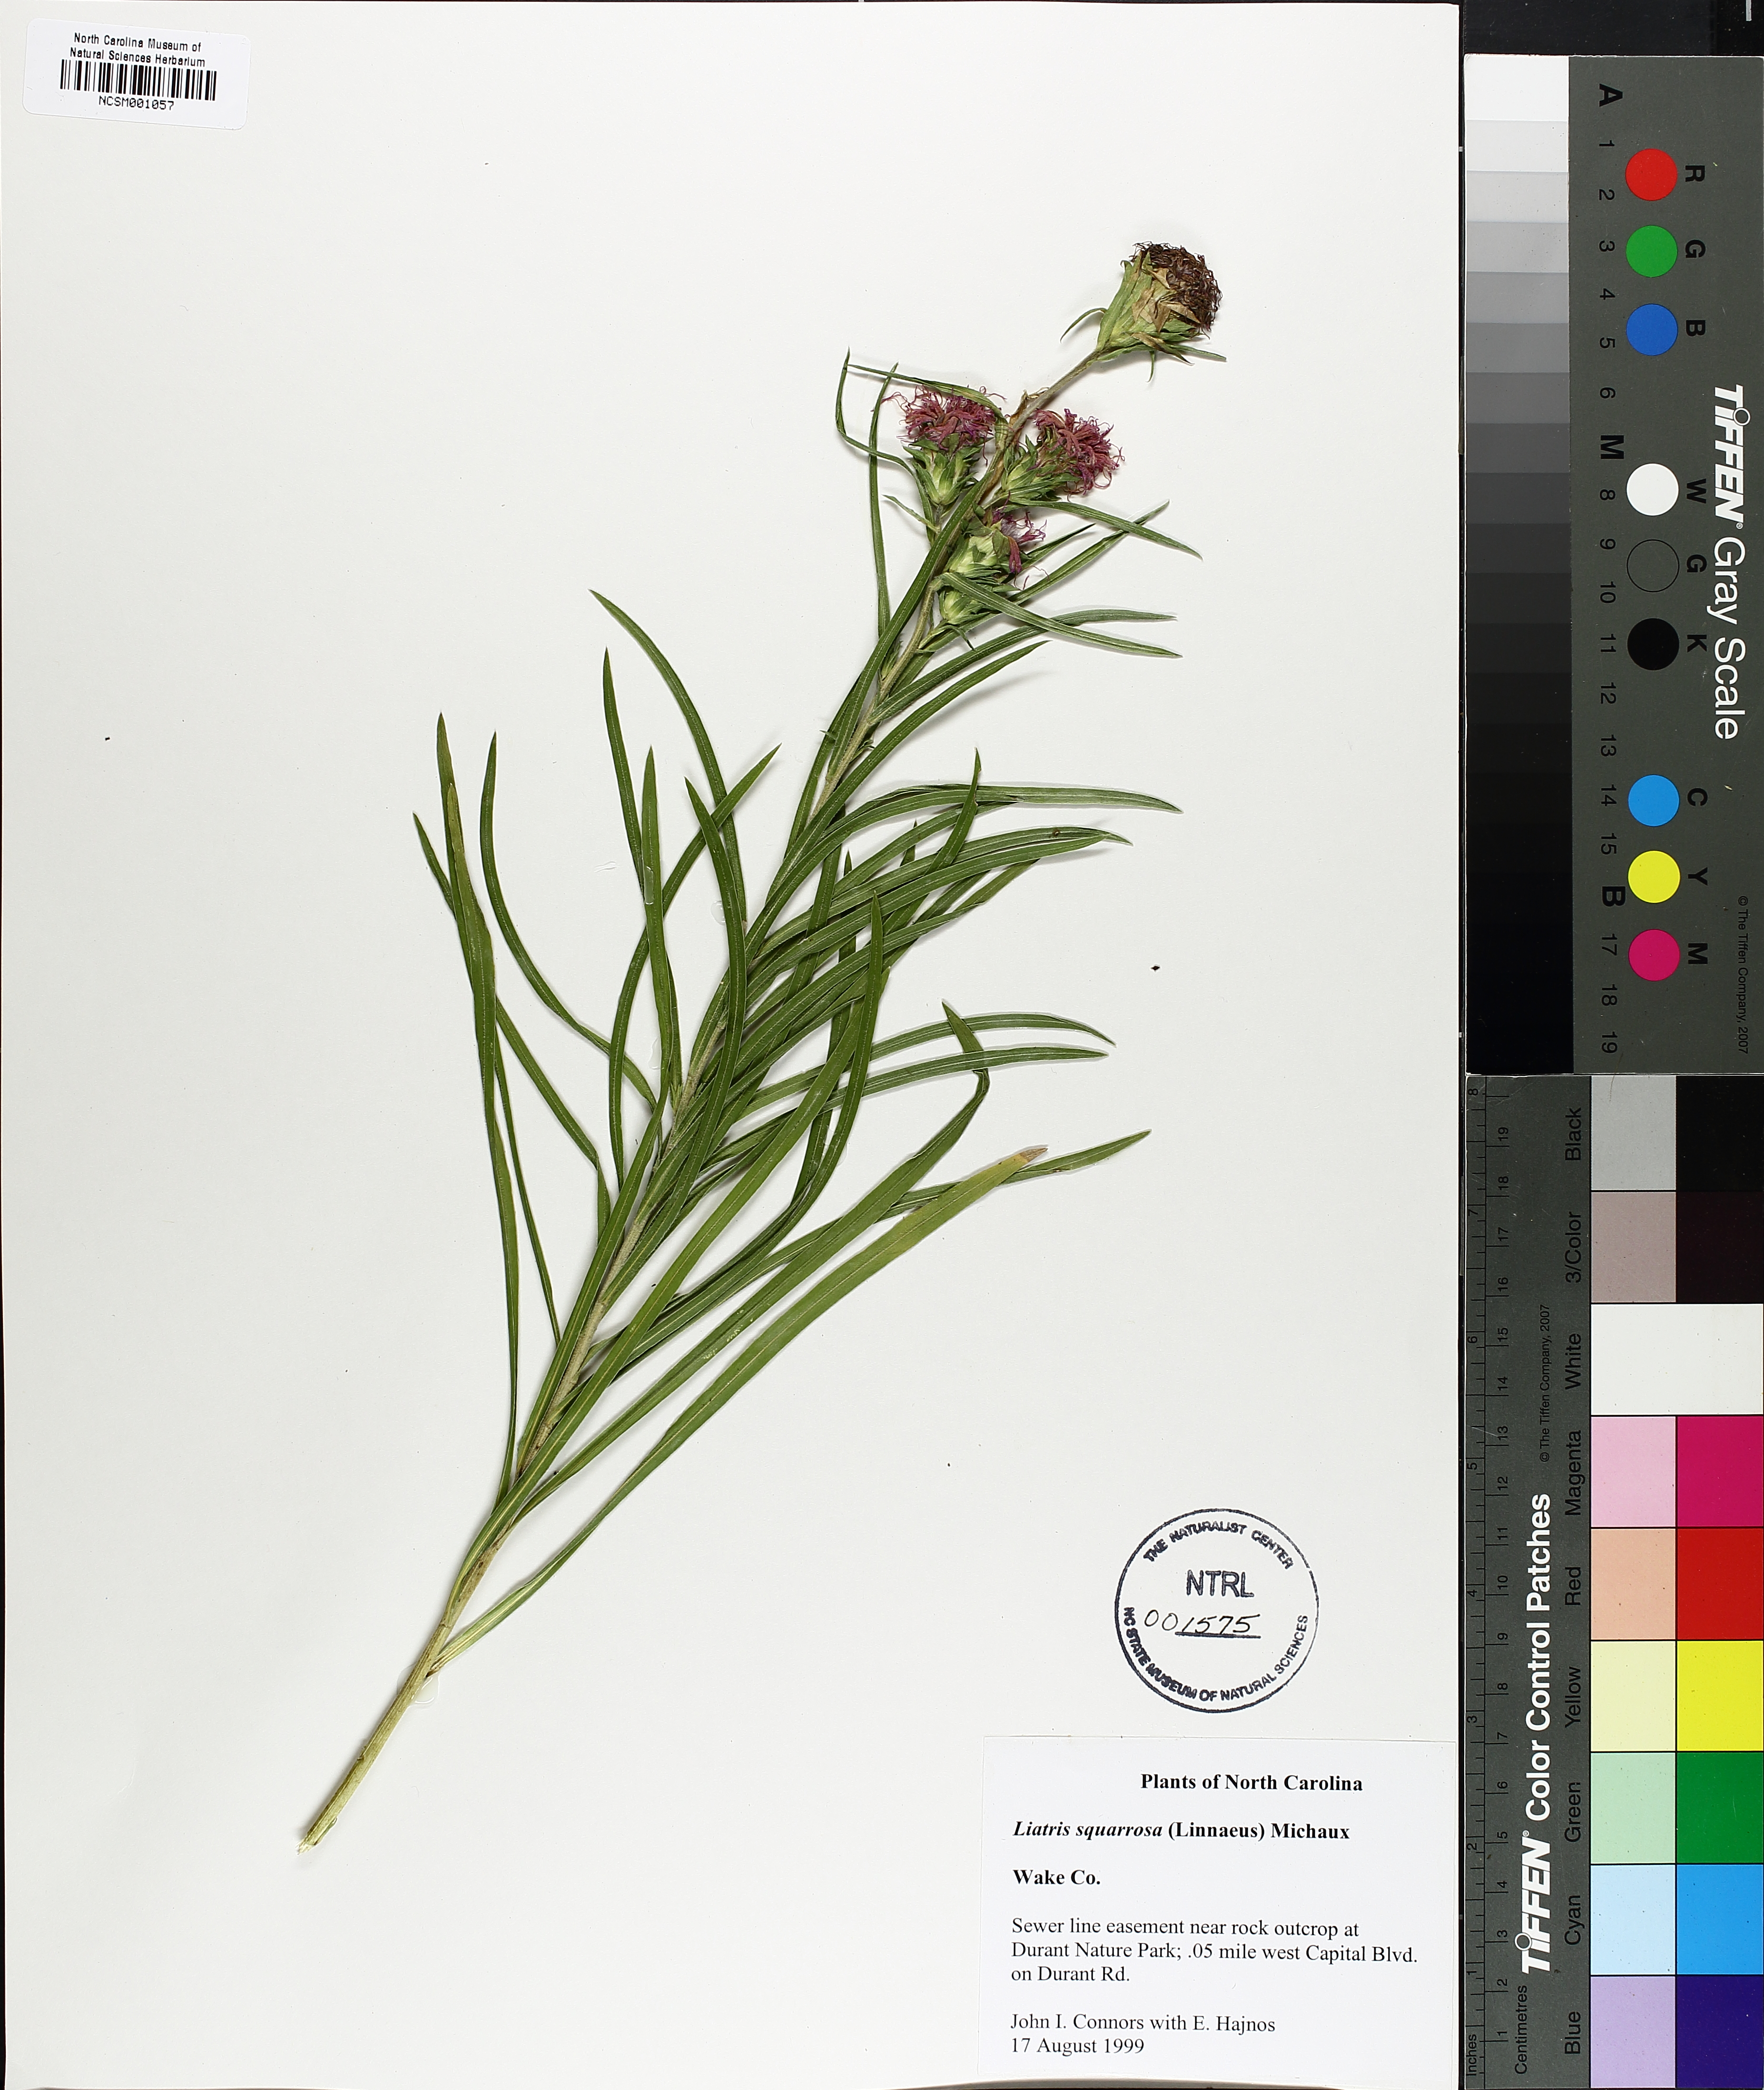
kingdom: Plantae
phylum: Tracheophyta
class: Magnoliopsida
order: Asterales
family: Asteraceae
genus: Liatris
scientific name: Liatris squarrosa
